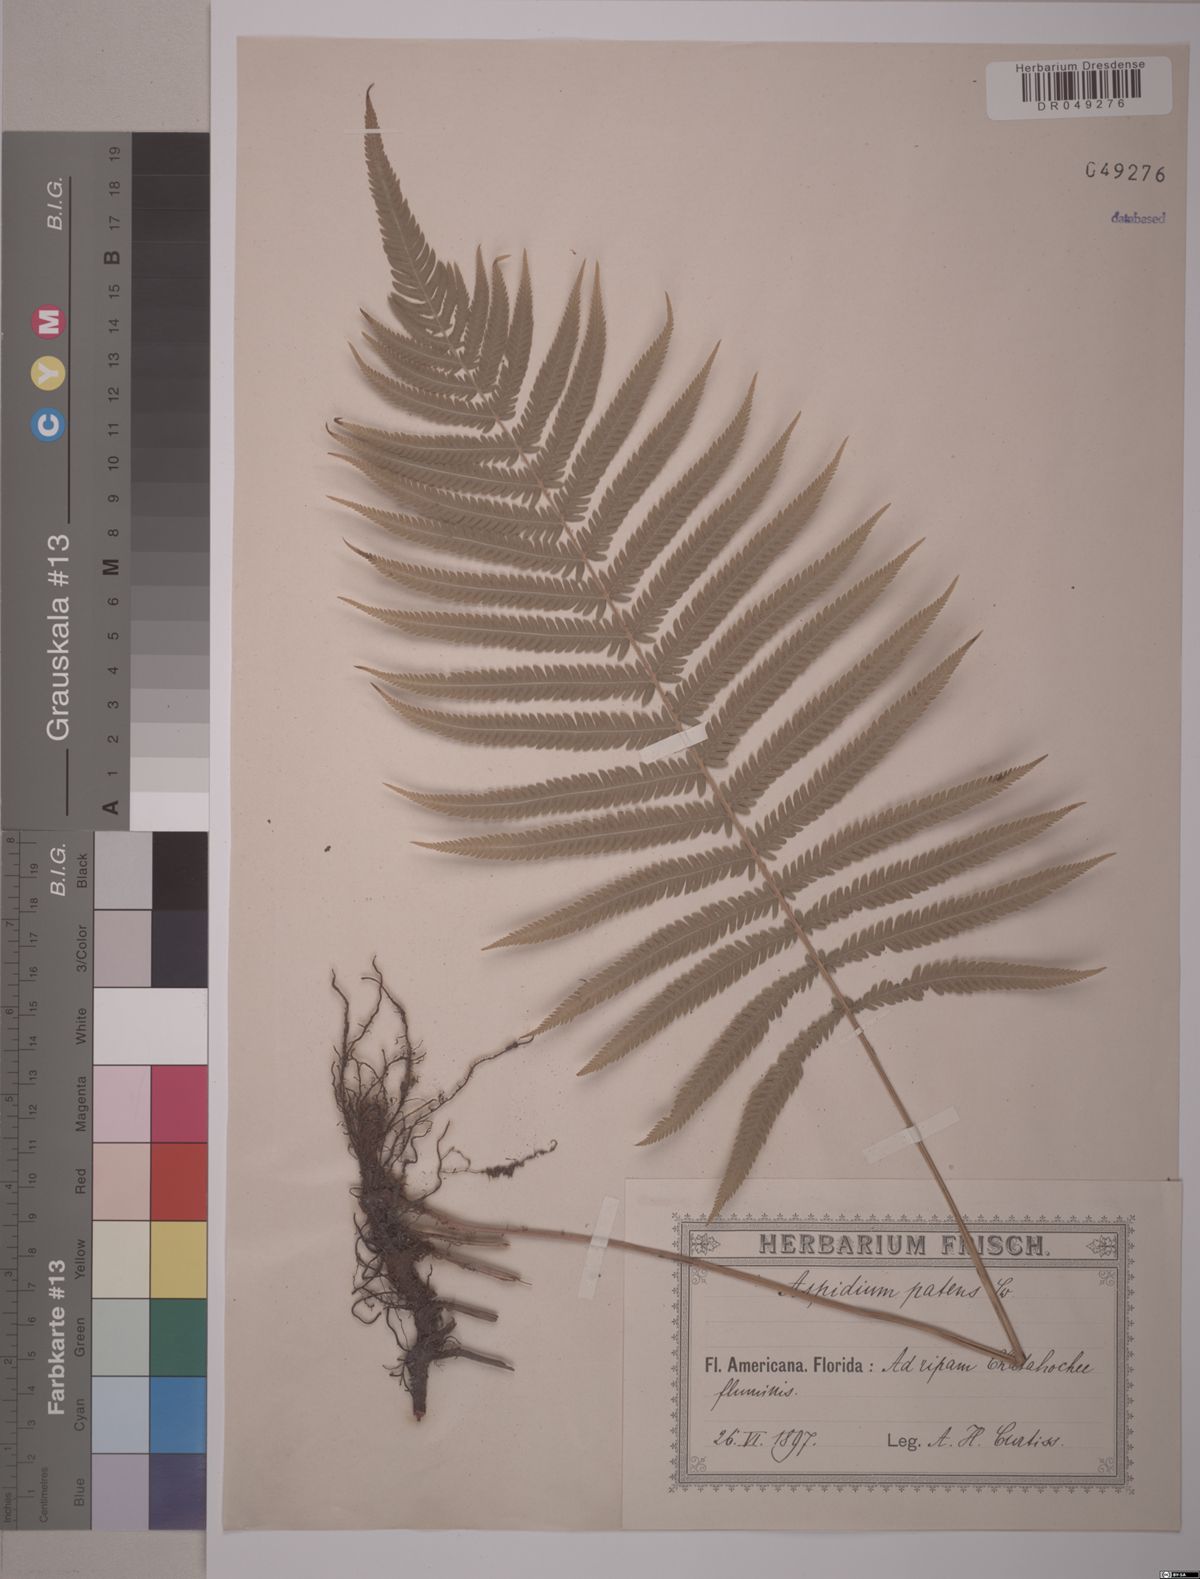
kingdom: Plantae
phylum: Tracheophyta
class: Polypodiopsida
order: Polypodiales
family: Thelypteridaceae
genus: Pelazoneuron
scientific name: Pelazoneuron patens
